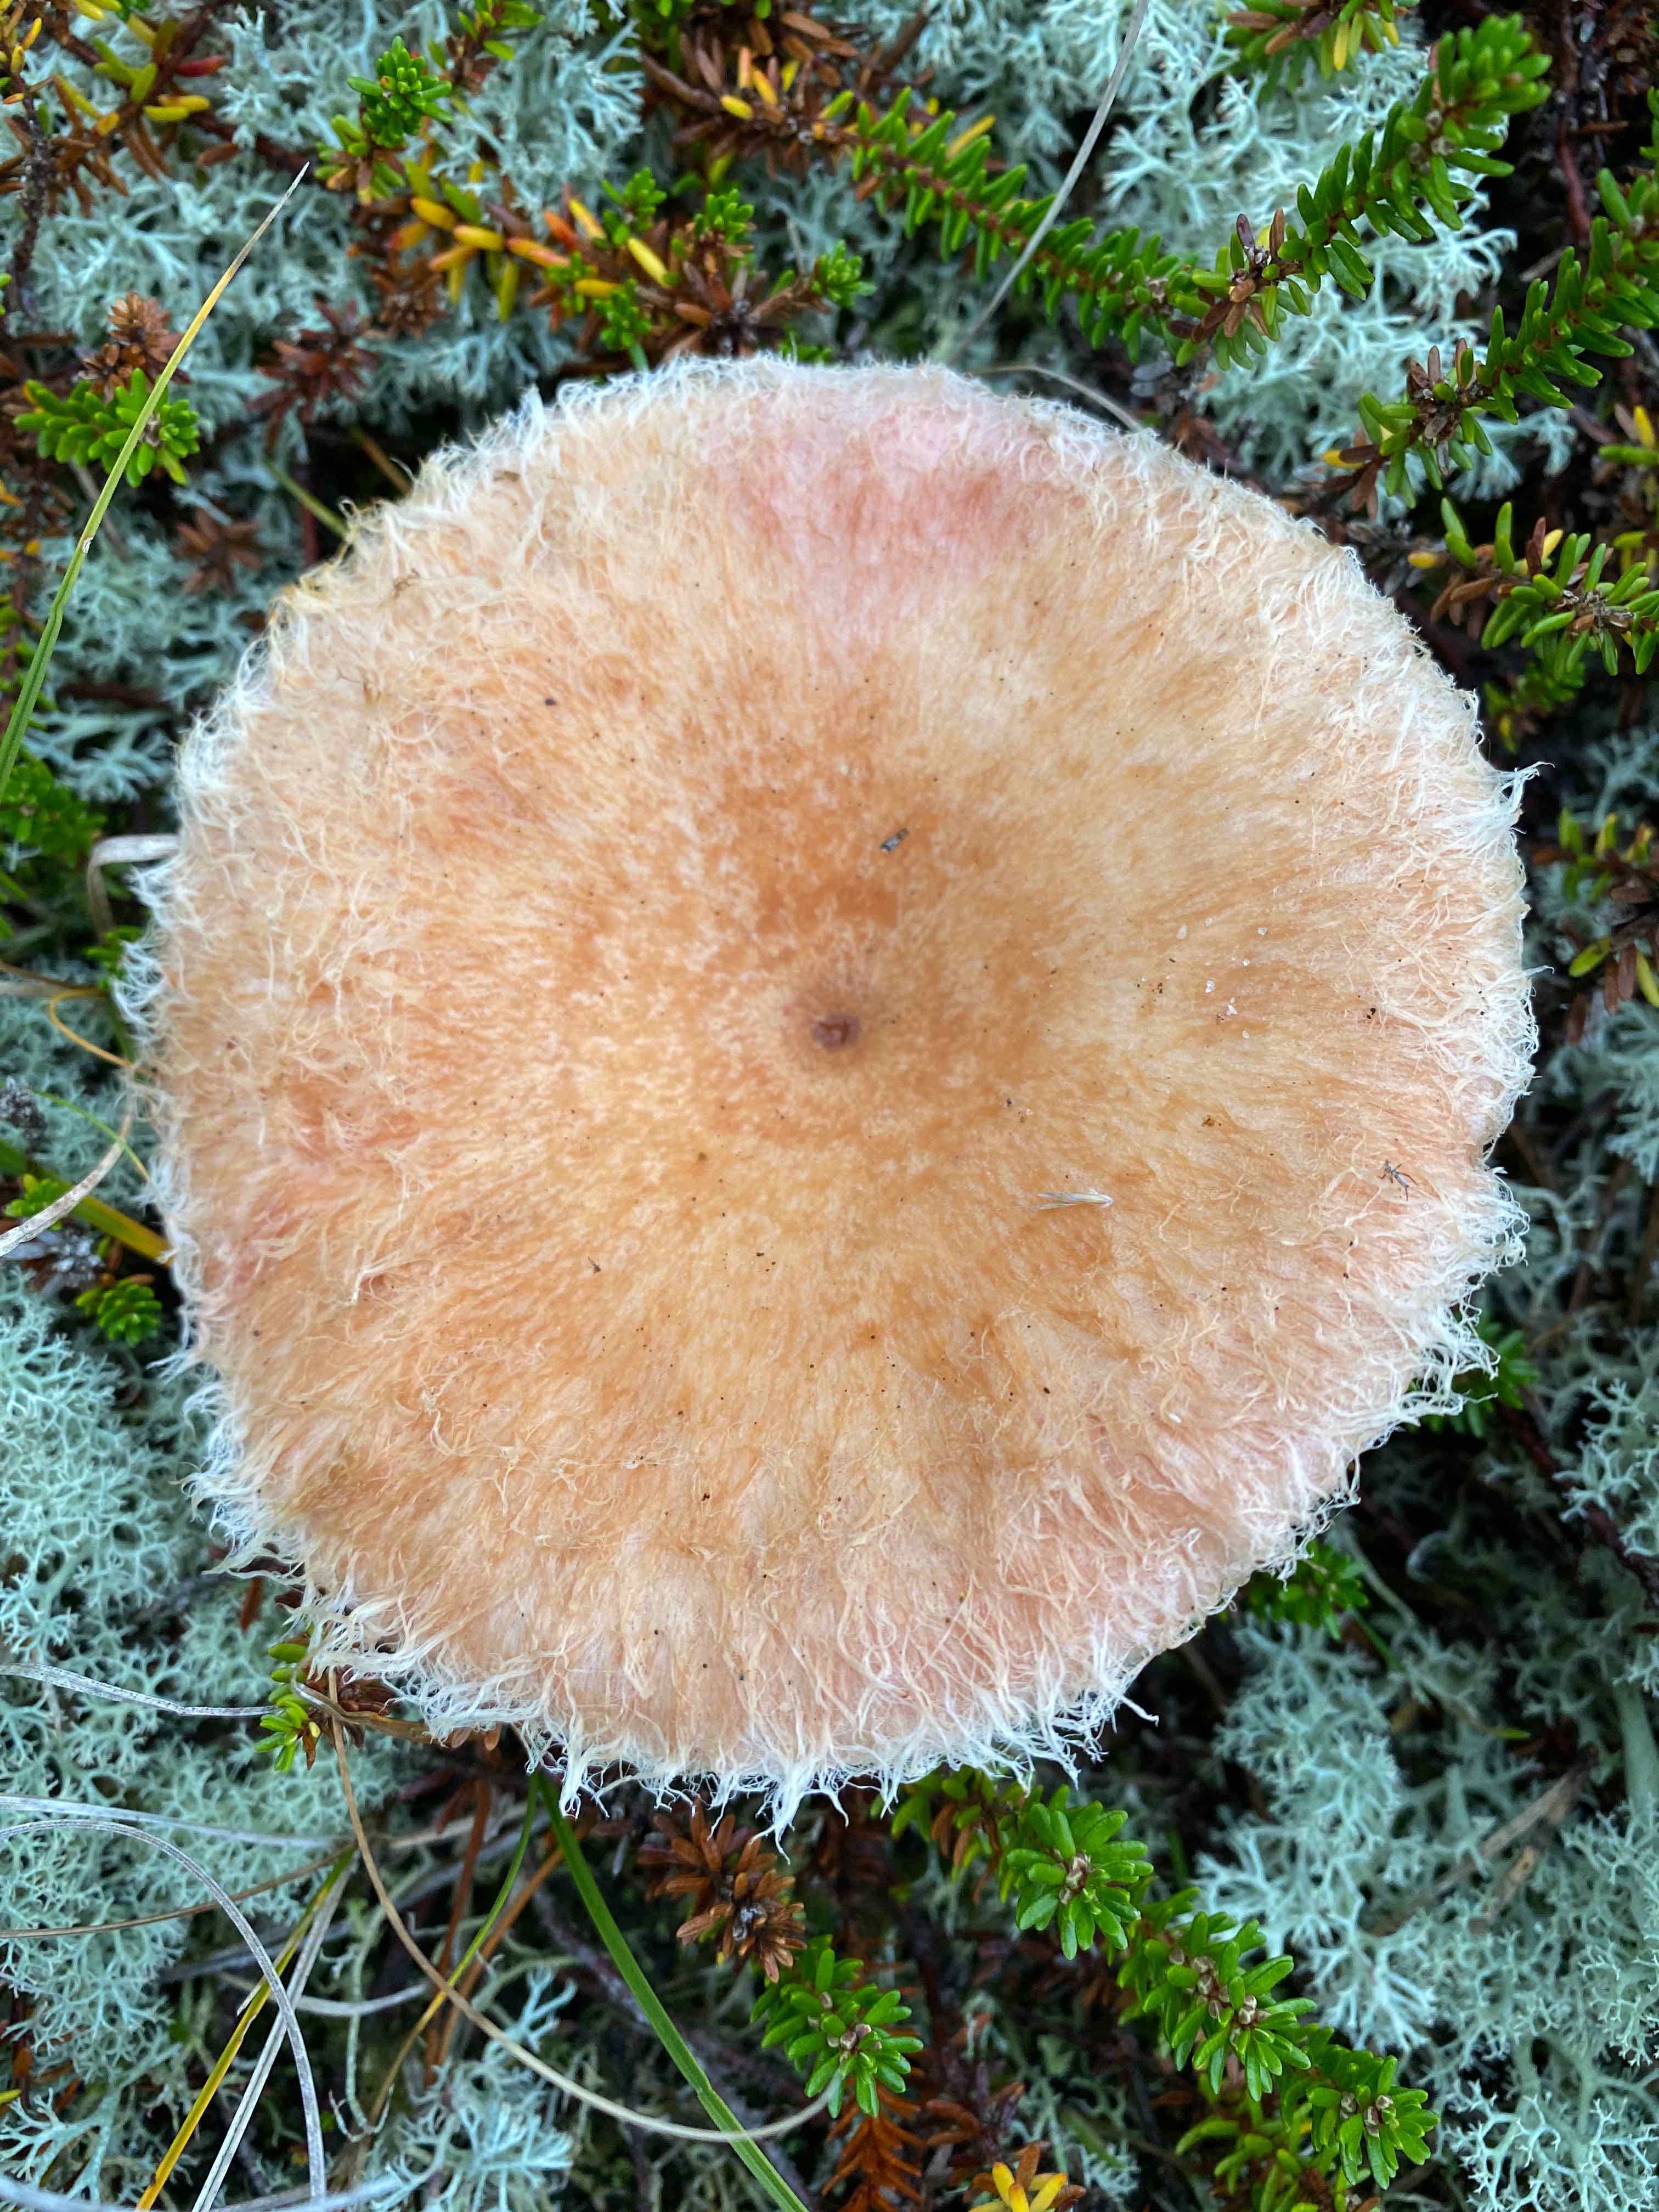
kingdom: Fungi
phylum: Basidiomycota
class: Agaricomycetes
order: Russulales
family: Russulaceae
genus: Lactarius
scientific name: Lactarius
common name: mælkehat
